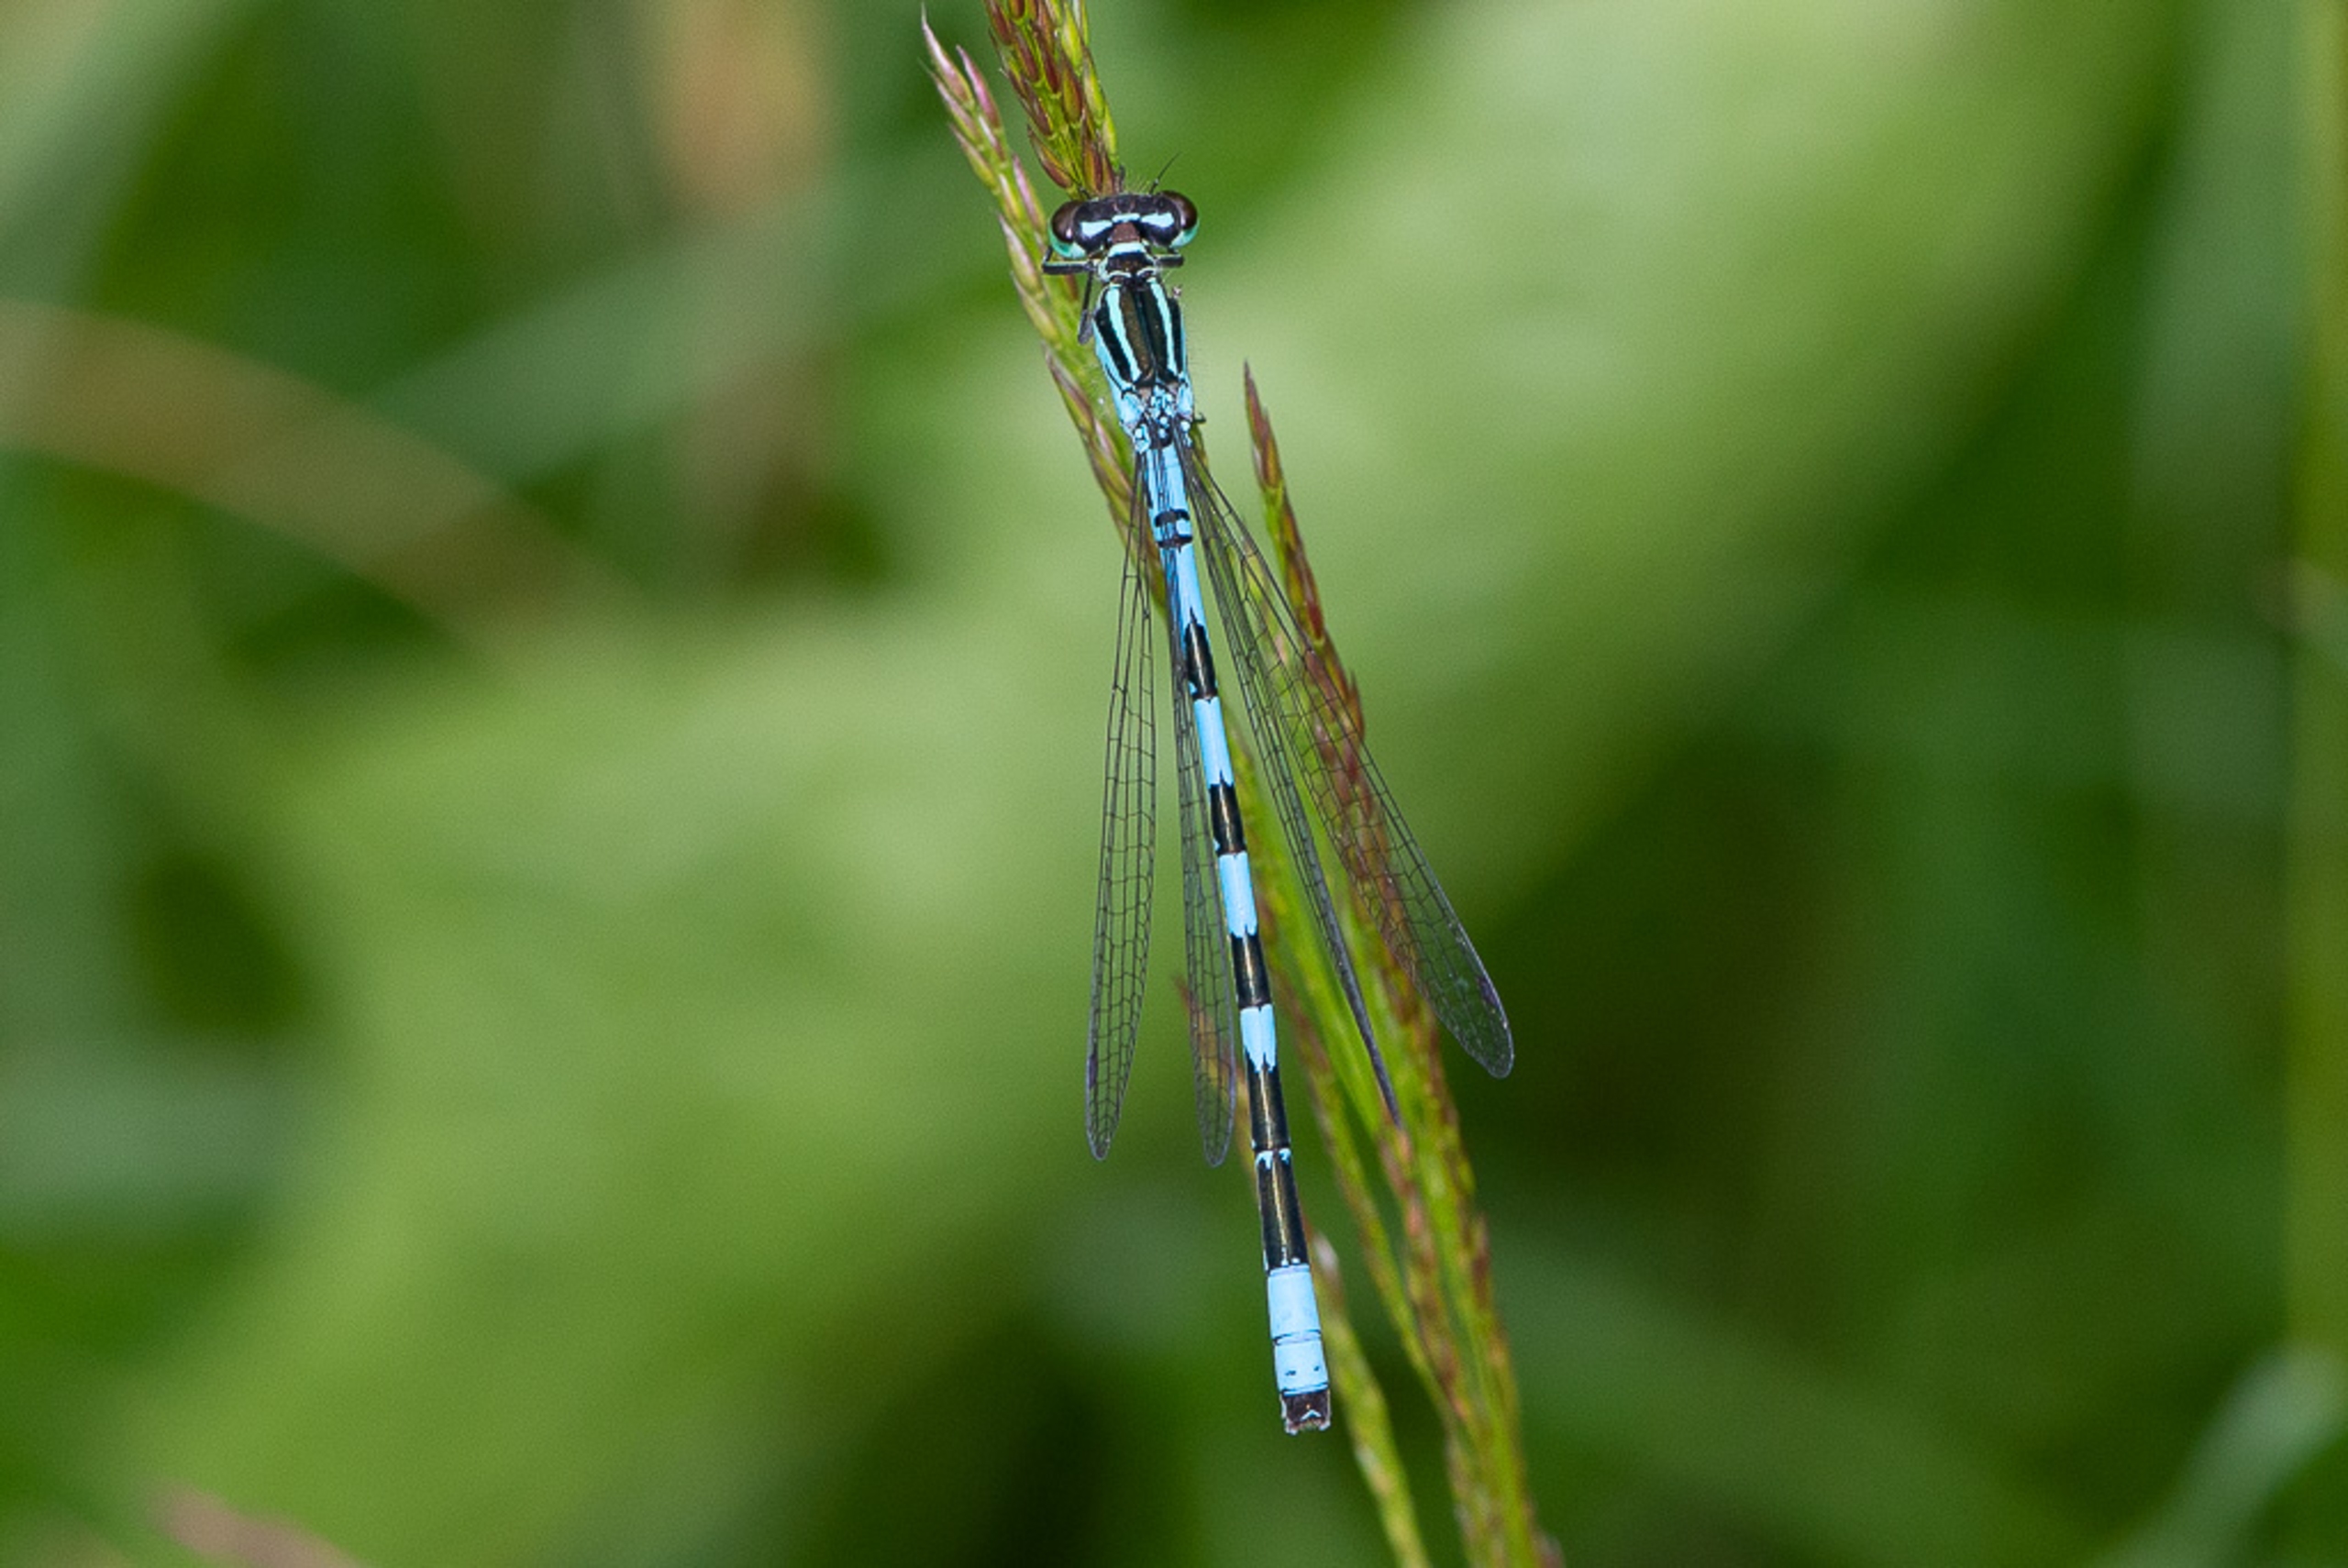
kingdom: Animalia
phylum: Arthropoda
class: Insecta
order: Odonata
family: Coenagrionidae
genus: Coenagrion
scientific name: Coenagrion hastulatum
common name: Spyd-vandnymfe
